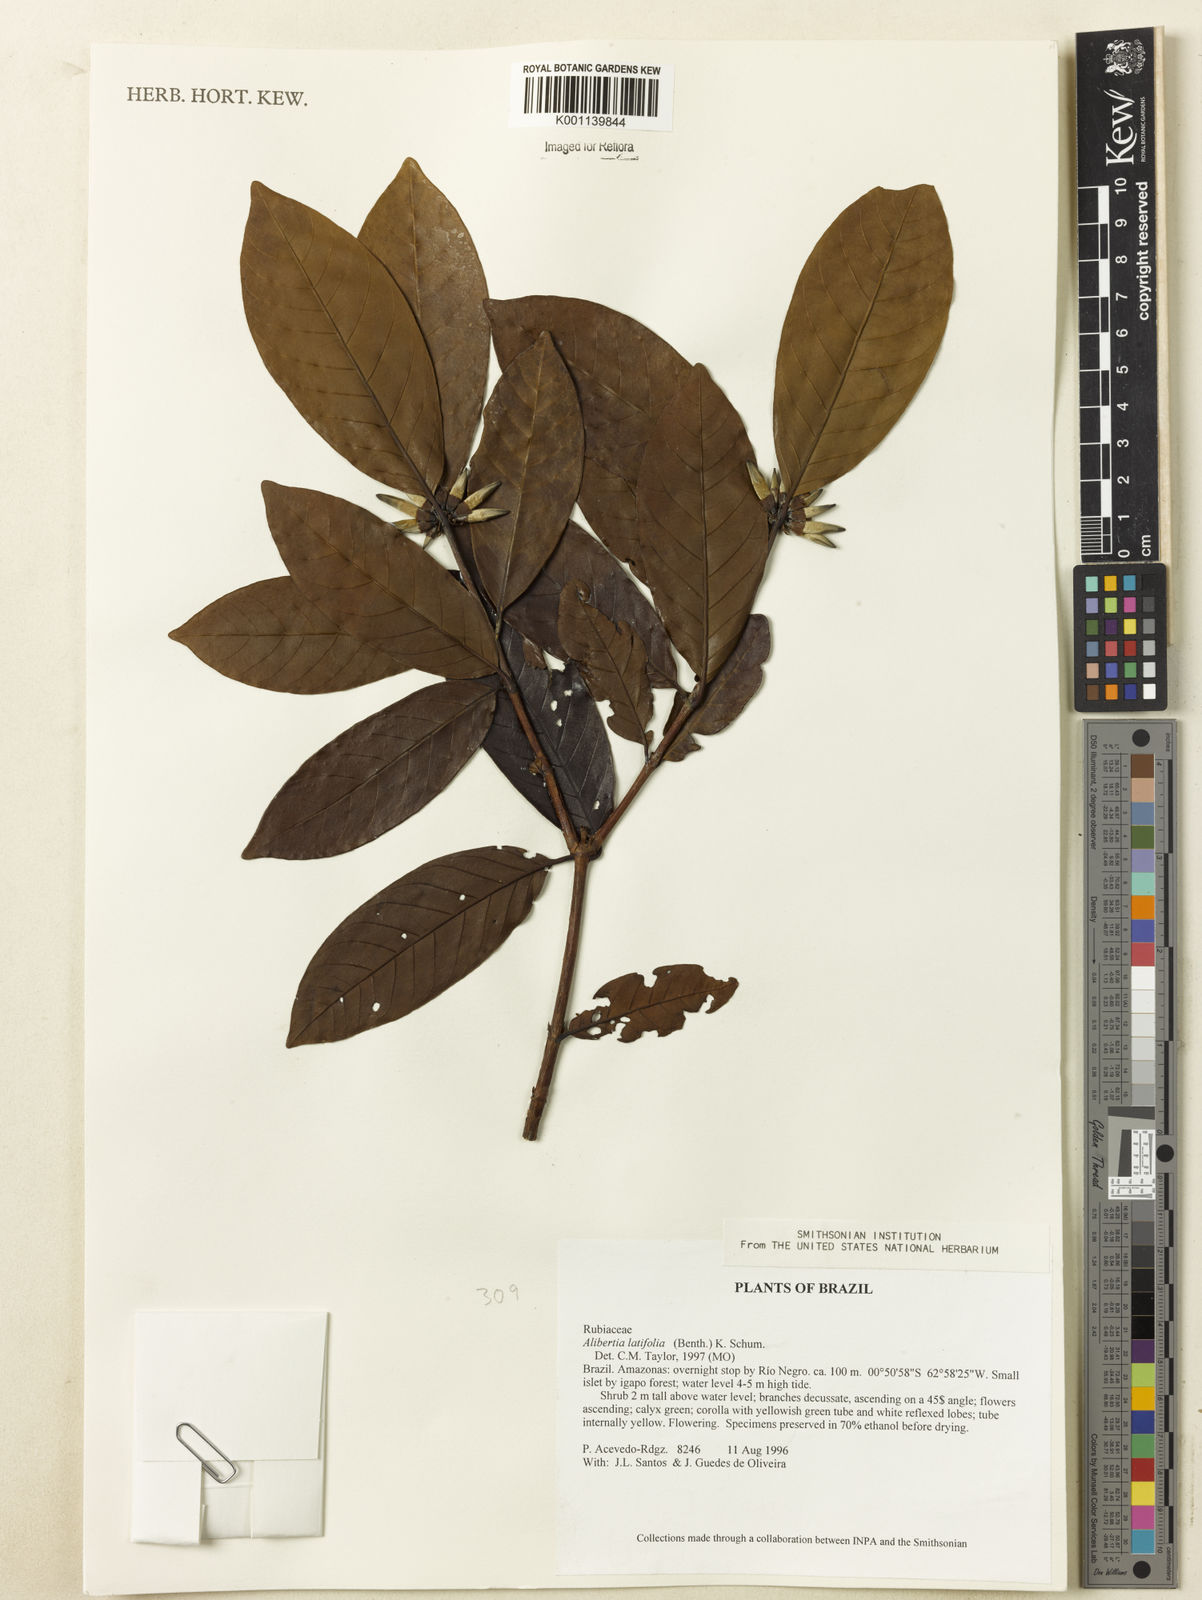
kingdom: Plantae
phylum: Tracheophyta
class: Magnoliopsida
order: Gentianales
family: Rubiaceae
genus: Alibertia
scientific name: Alibertia latifolia
